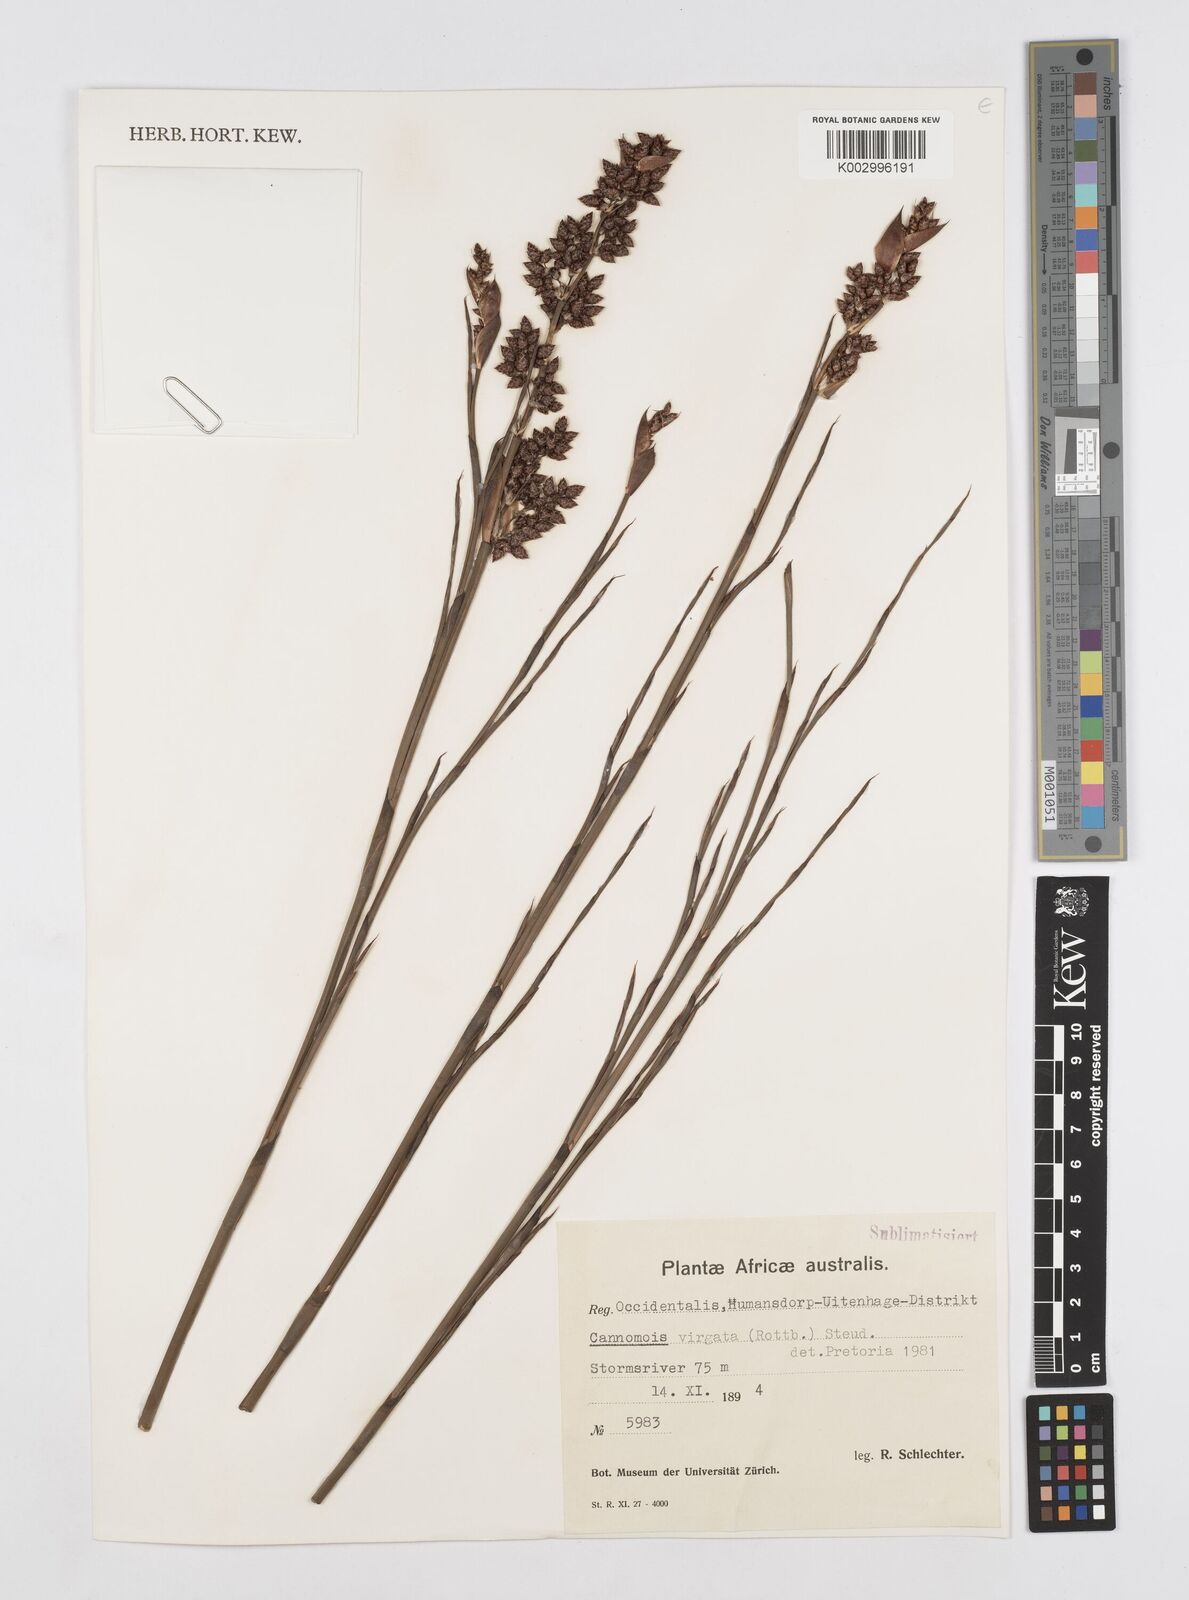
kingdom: Plantae
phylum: Tracheophyta
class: Liliopsida
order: Poales
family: Restionaceae
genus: Cannomois
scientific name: Cannomois virgata
